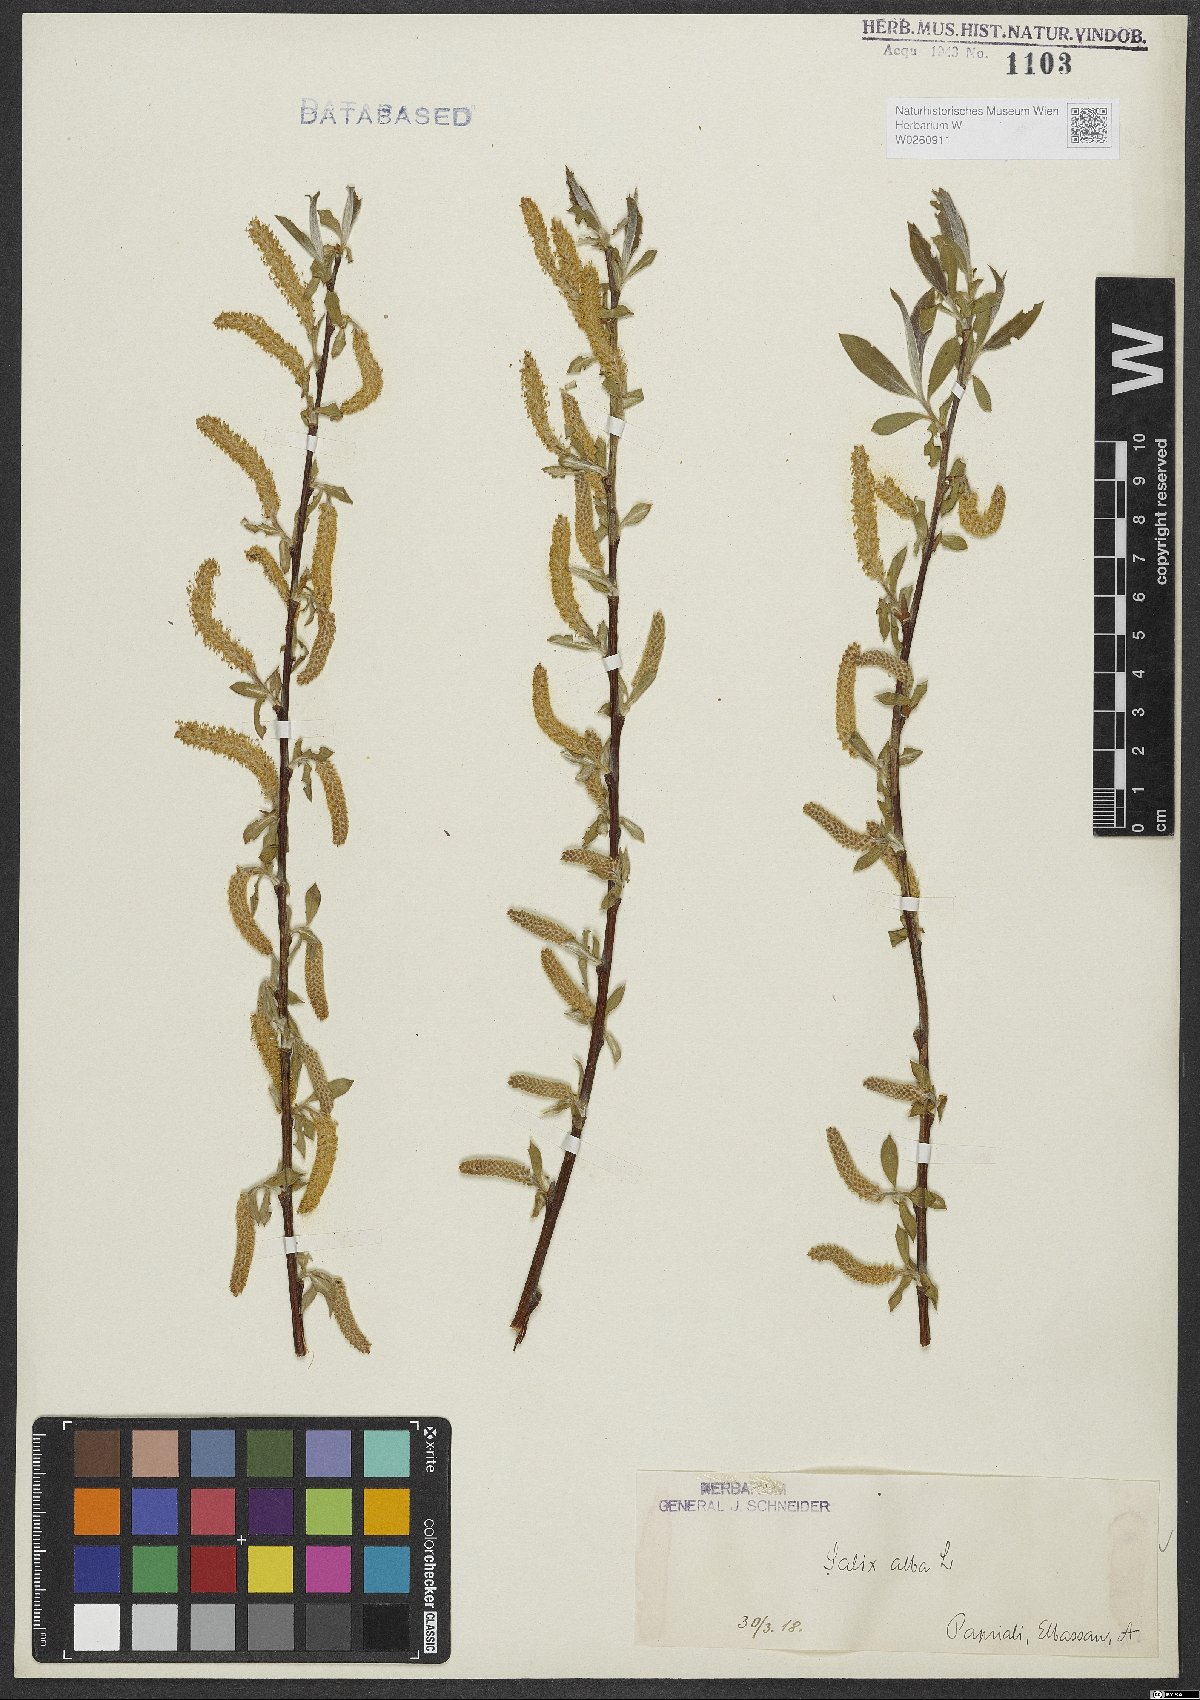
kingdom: Plantae
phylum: Tracheophyta
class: Magnoliopsida
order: Malpighiales
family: Salicaceae
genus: Salix
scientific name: Salix alba
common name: White willow
